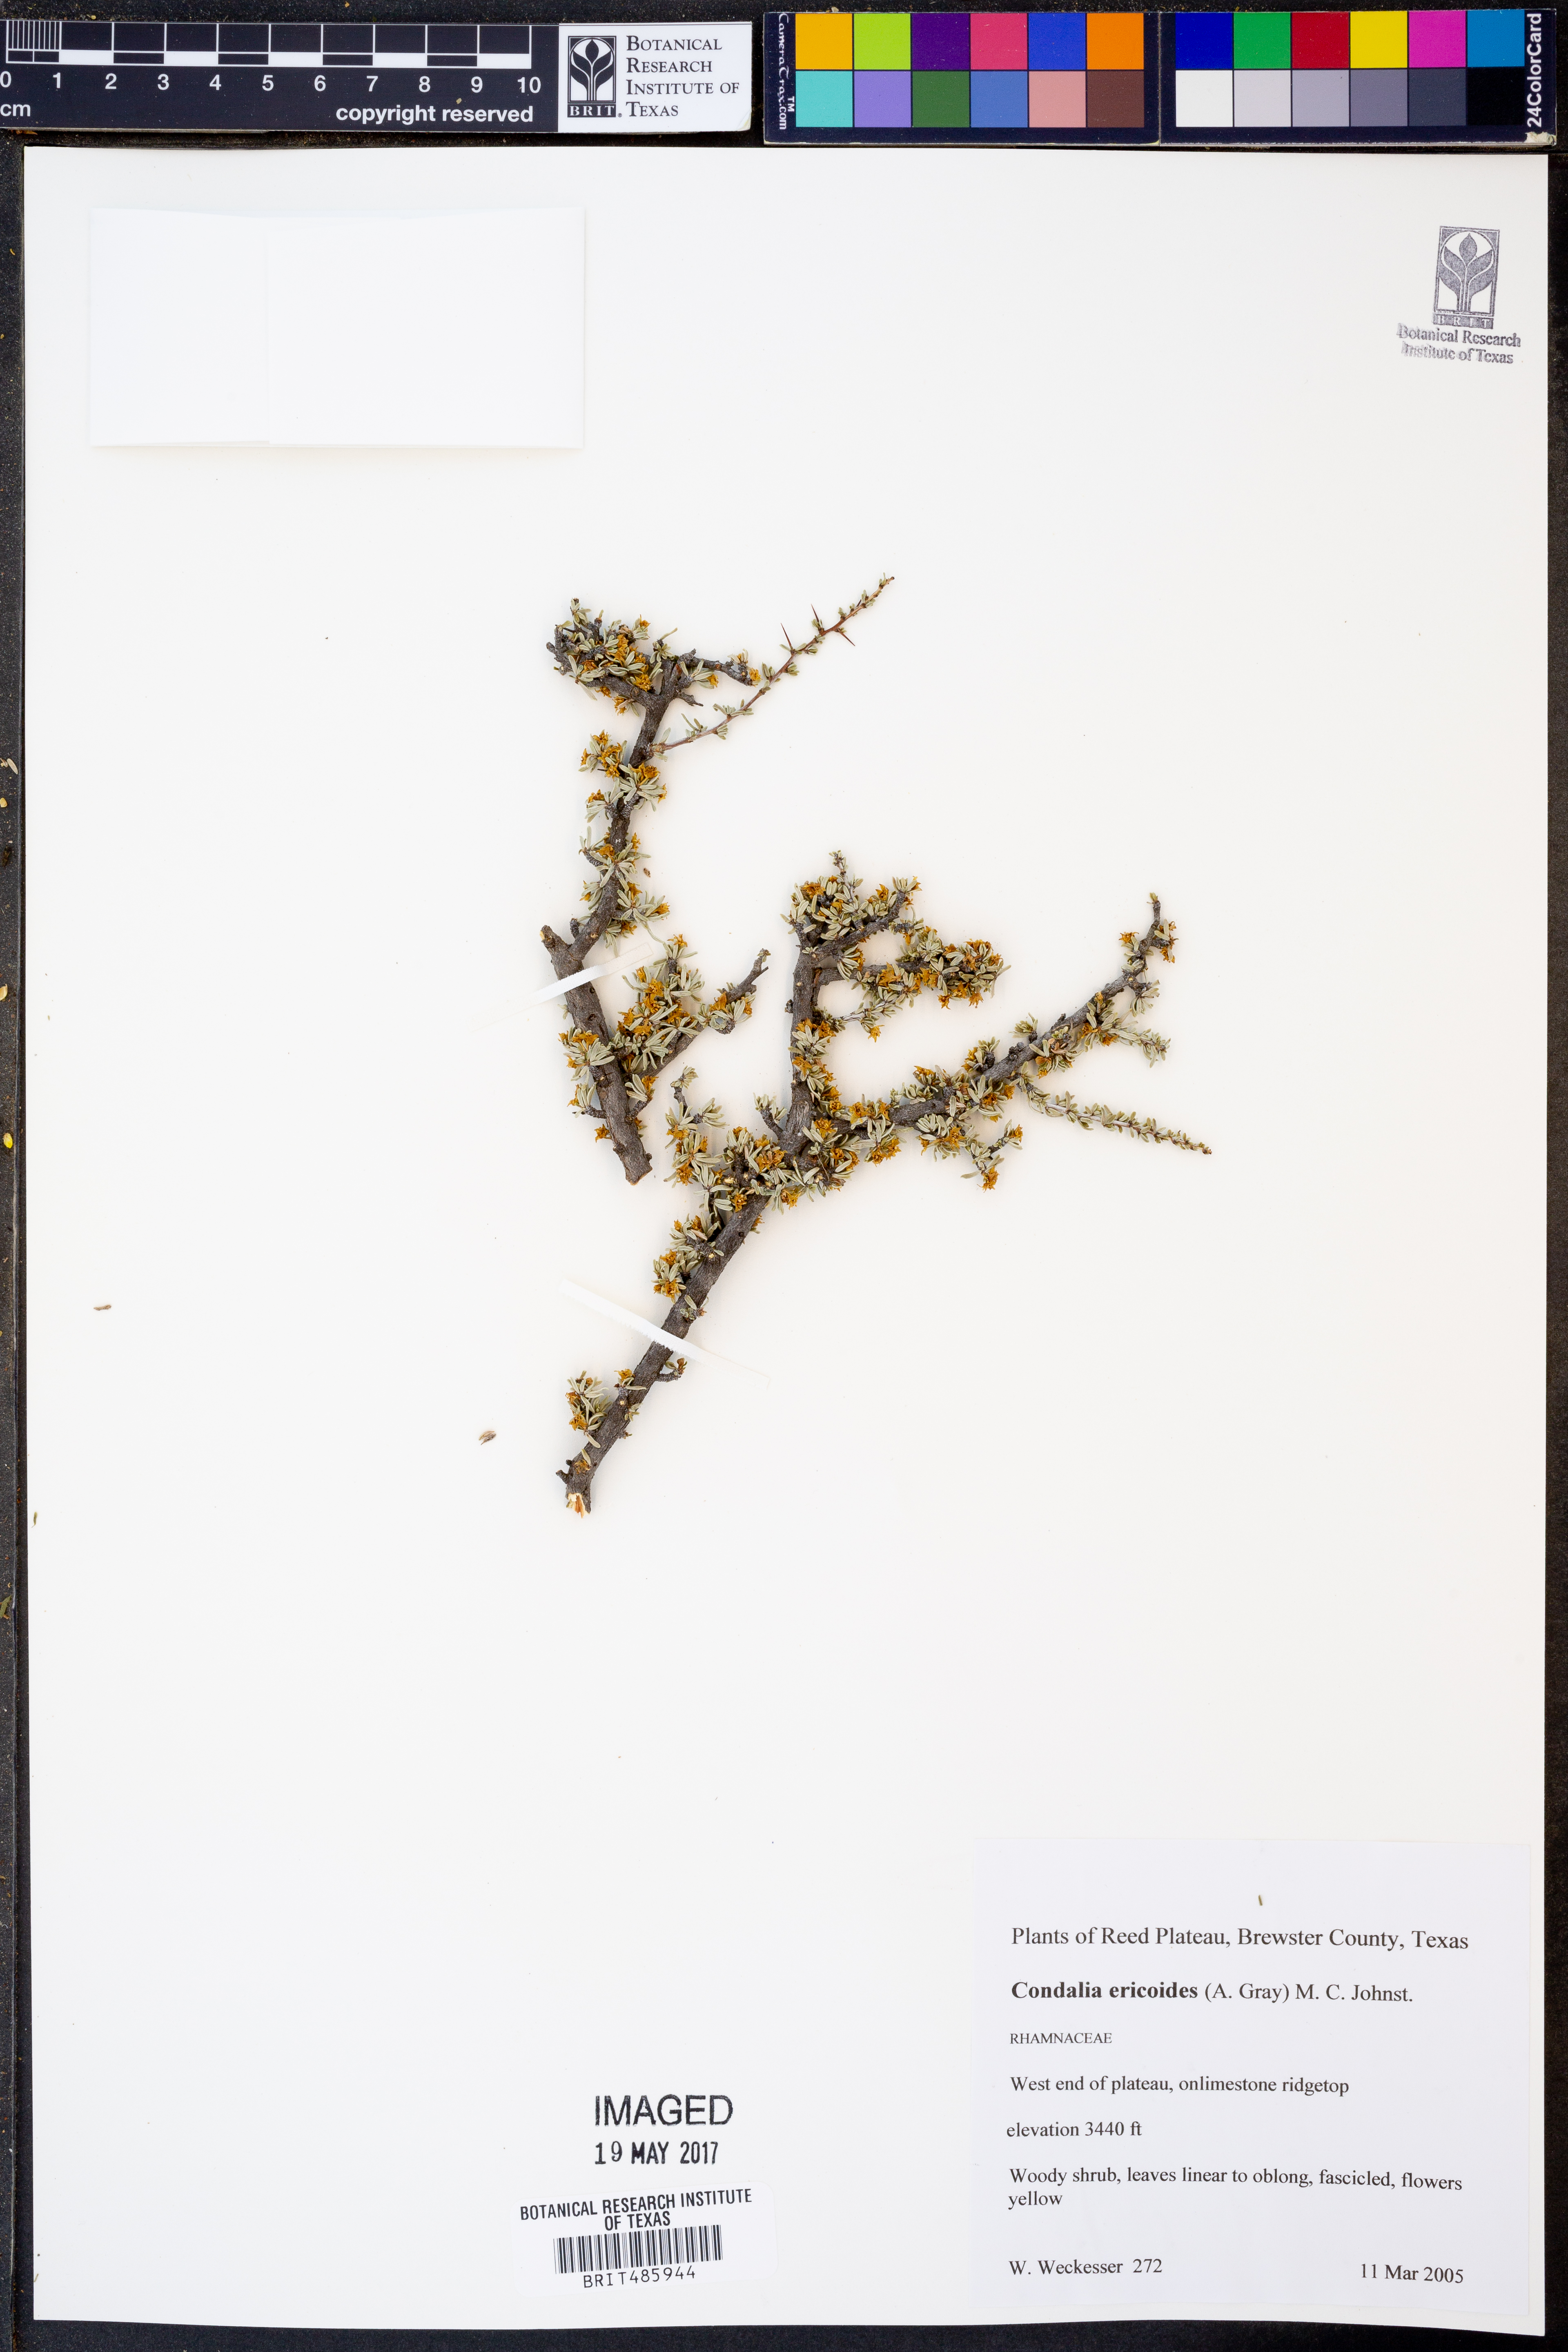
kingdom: Plantae
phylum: Tracheophyta
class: Magnoliopsida
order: Rosales
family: Rhamnaceae
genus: Condalia
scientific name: Condalia ericoides
